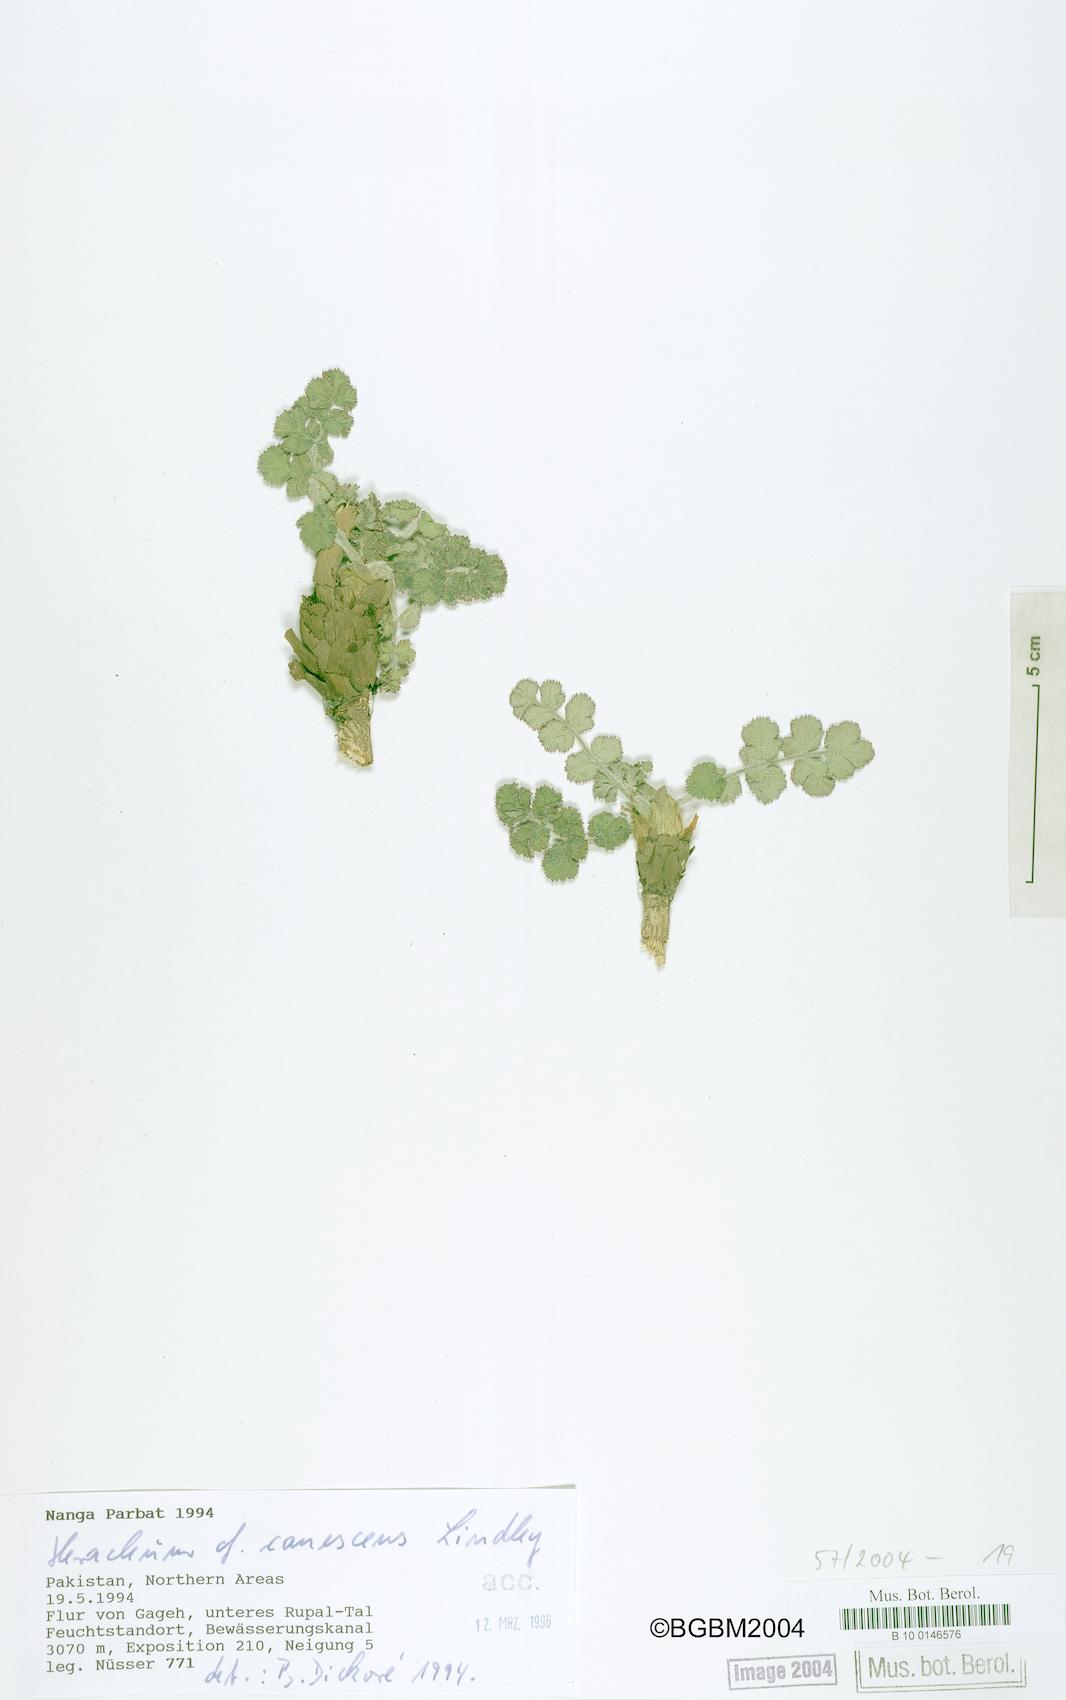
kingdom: Plantae
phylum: Tracheophyta
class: Magnoliopsida
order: Apiales
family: Apiaceae
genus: Tetrataenium
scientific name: Tetrataenium canescens
